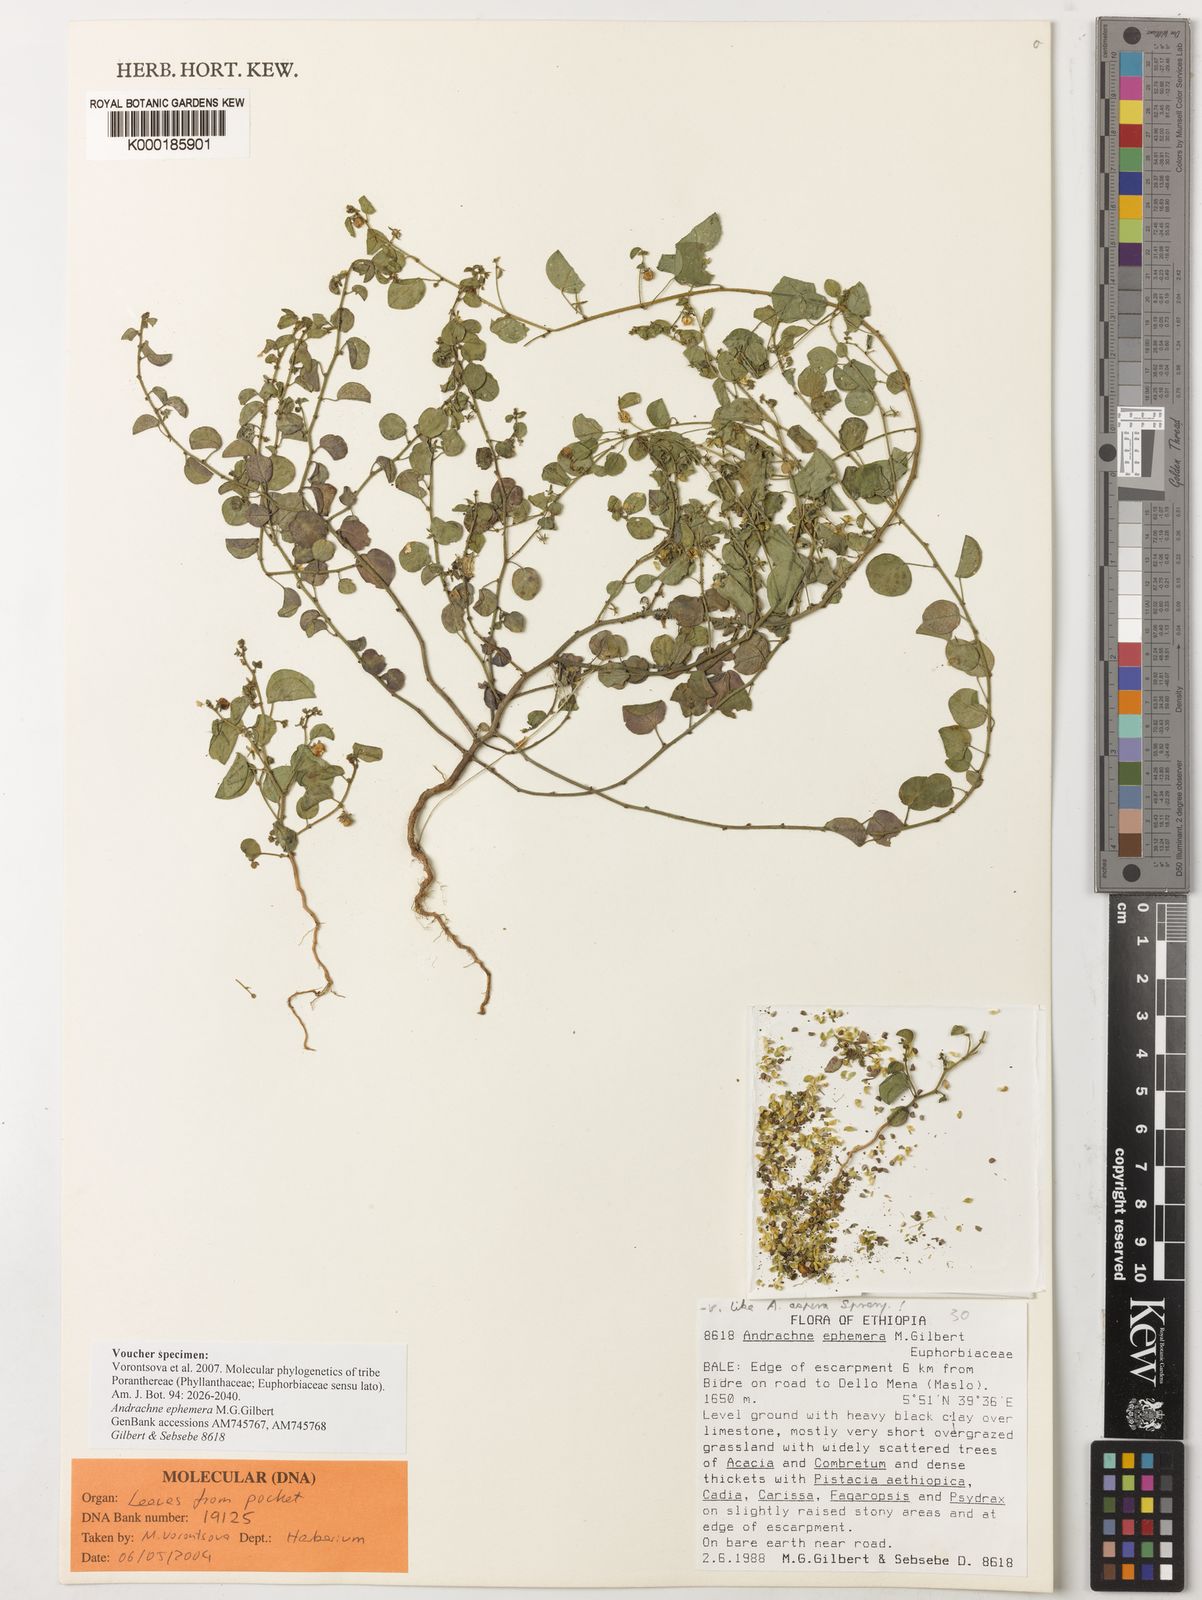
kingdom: Plantae
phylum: Tracheophyta
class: Magnoliopsida
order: Malpighiales
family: Phyllanthaceae
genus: Andrachne
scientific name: Andrachne ephemera
